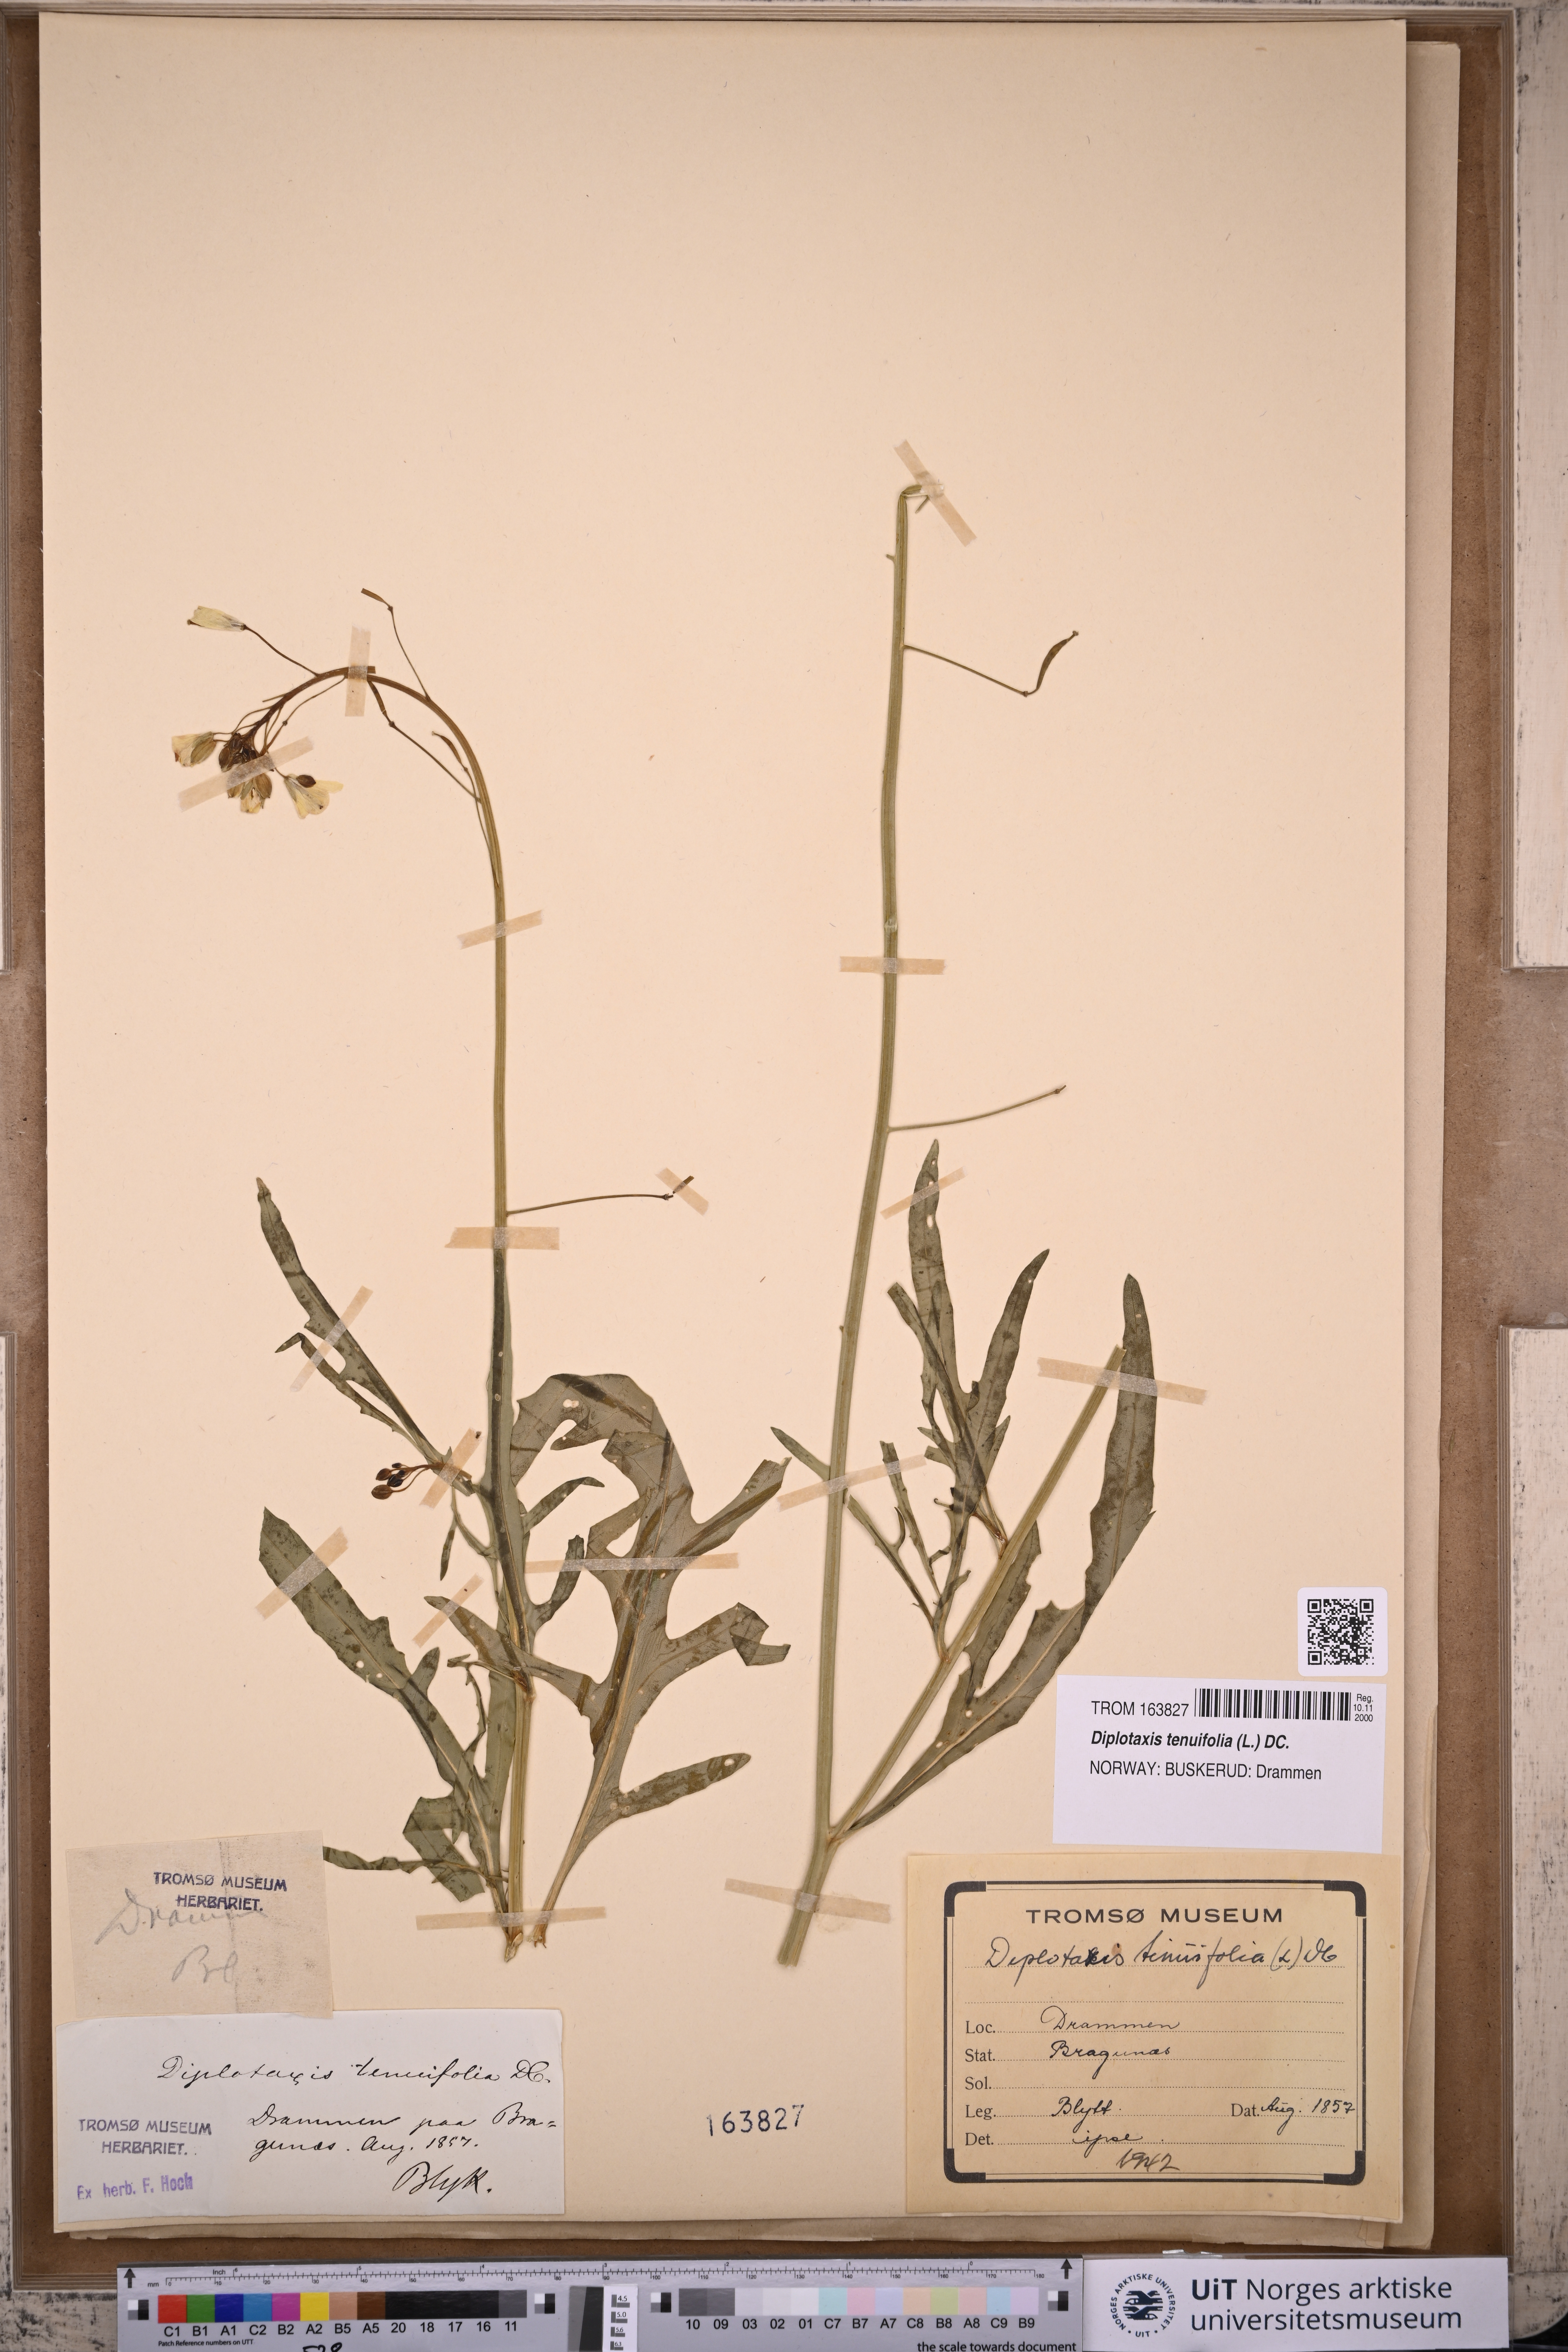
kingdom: Plantae
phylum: Tracheophyta
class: Magnoliopsida
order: Brassicales
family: Brassicaceae
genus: Diplotaxis
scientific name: Diplotaxis tenuifolia
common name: Perennial wall-rocket
